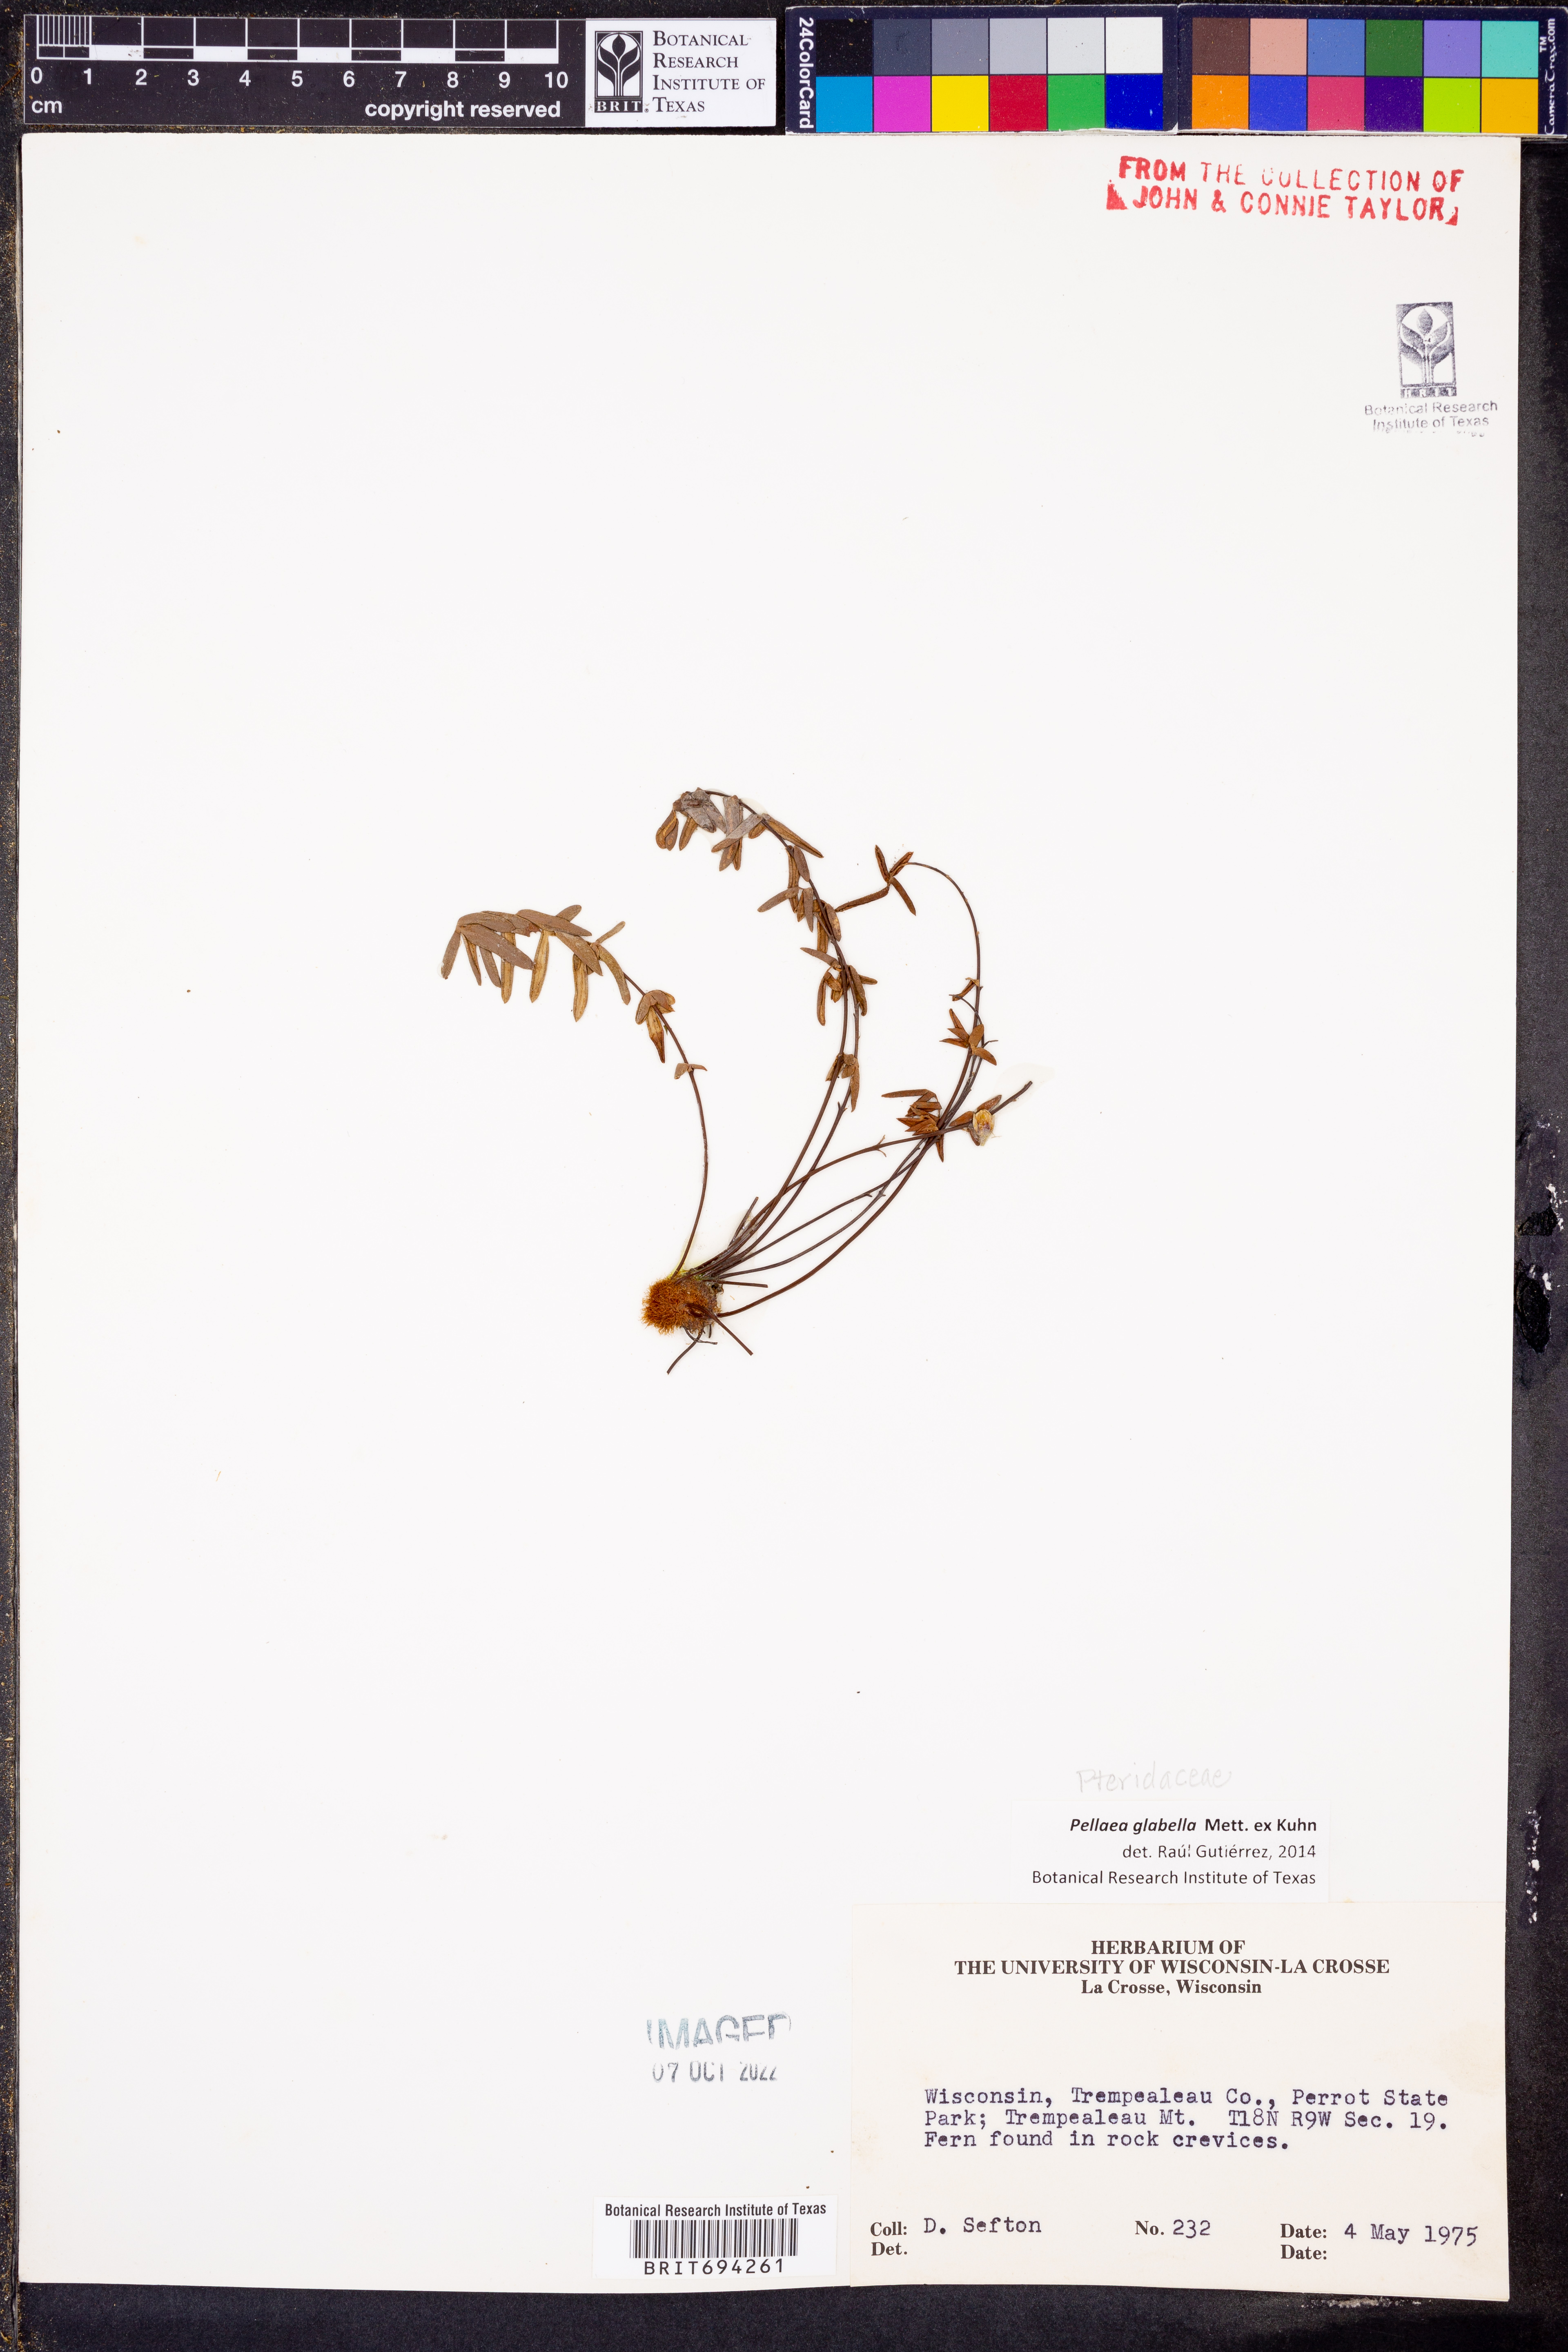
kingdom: Plantae
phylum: Tracheophyta
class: Polypodiopsida
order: Polypodiales
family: Pteridaceae
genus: Pellaea
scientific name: Pellaea glabella
